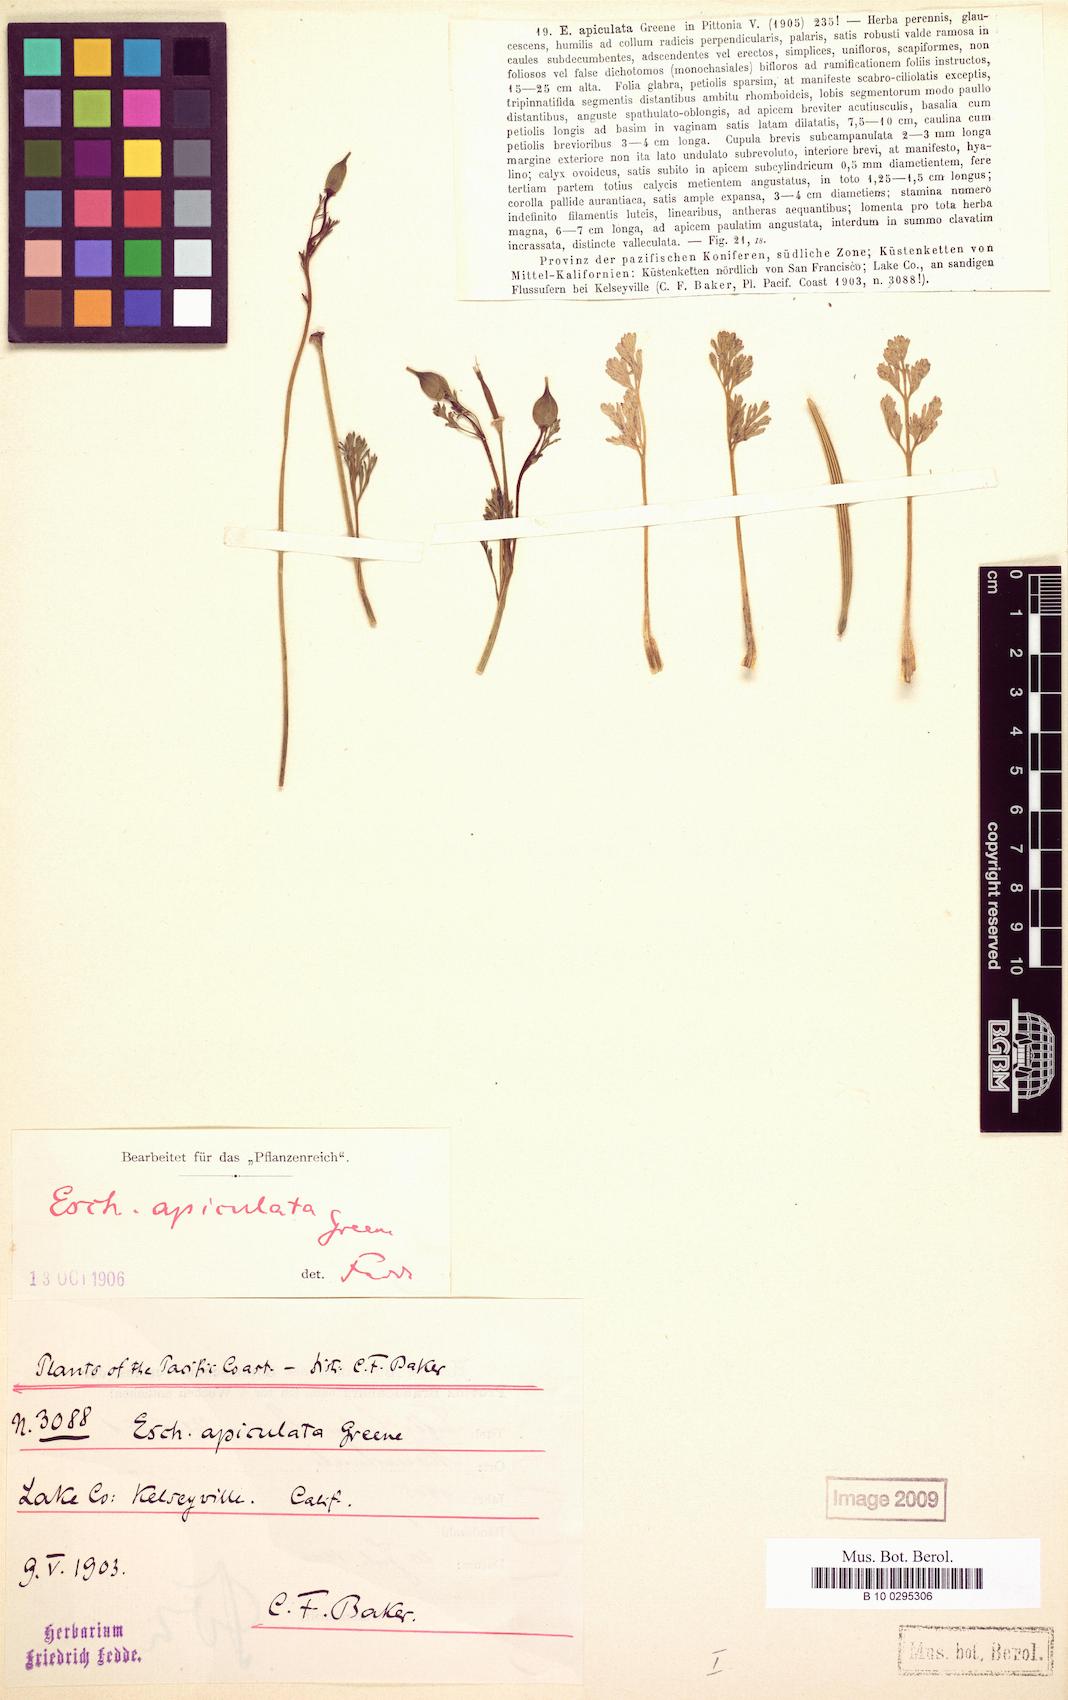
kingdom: Plantae
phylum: Tracheophyta
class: Magnoliopsida
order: Ranunculales
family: Papaveraceae
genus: Eschscholzia
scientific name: Eschscholzia californica
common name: California poppy
